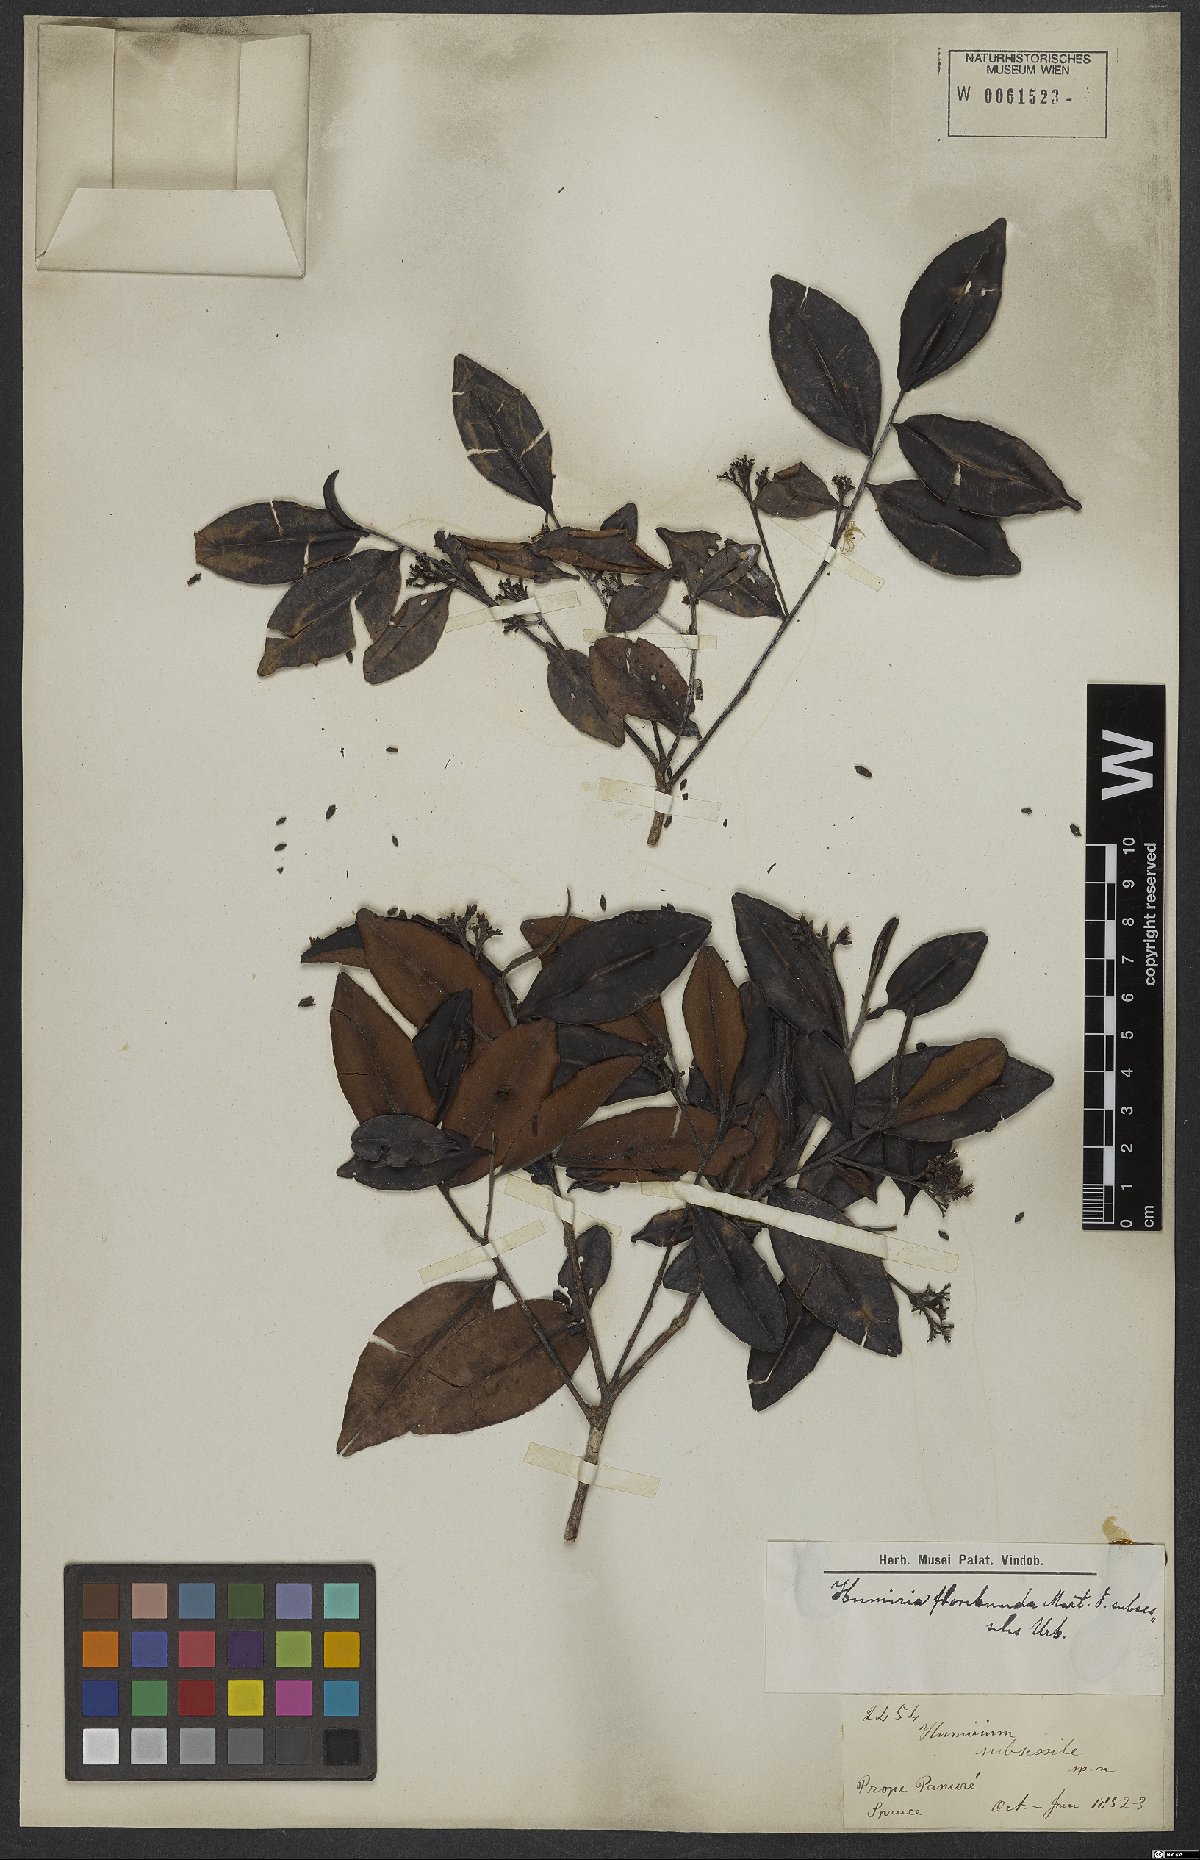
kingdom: Plantae
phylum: Tracheophyta
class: Magnoliopsida
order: Malpighiales
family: Humiriaceae
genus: Humiria
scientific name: Humiria balsamifera
